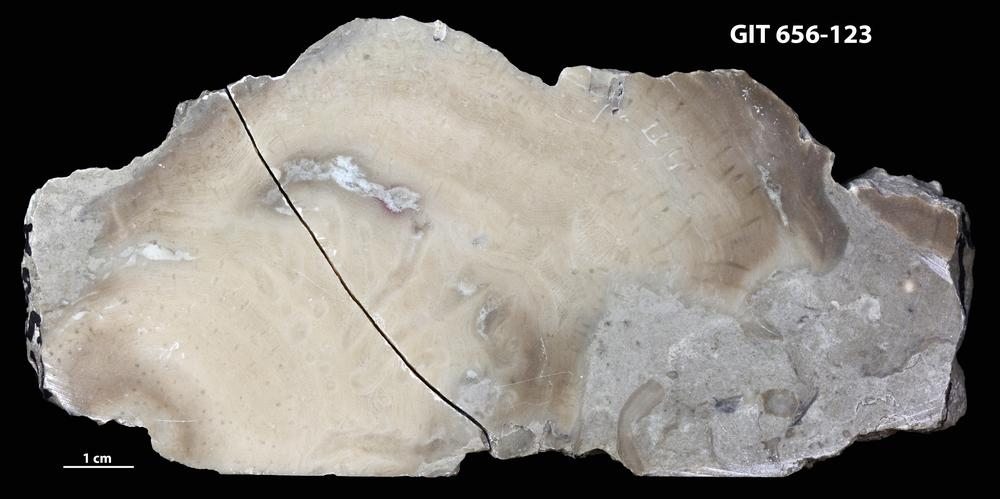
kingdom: Animalia
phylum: Porifera
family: Gerronostromatidae
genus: Petridiostroma
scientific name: Petridiostroma
